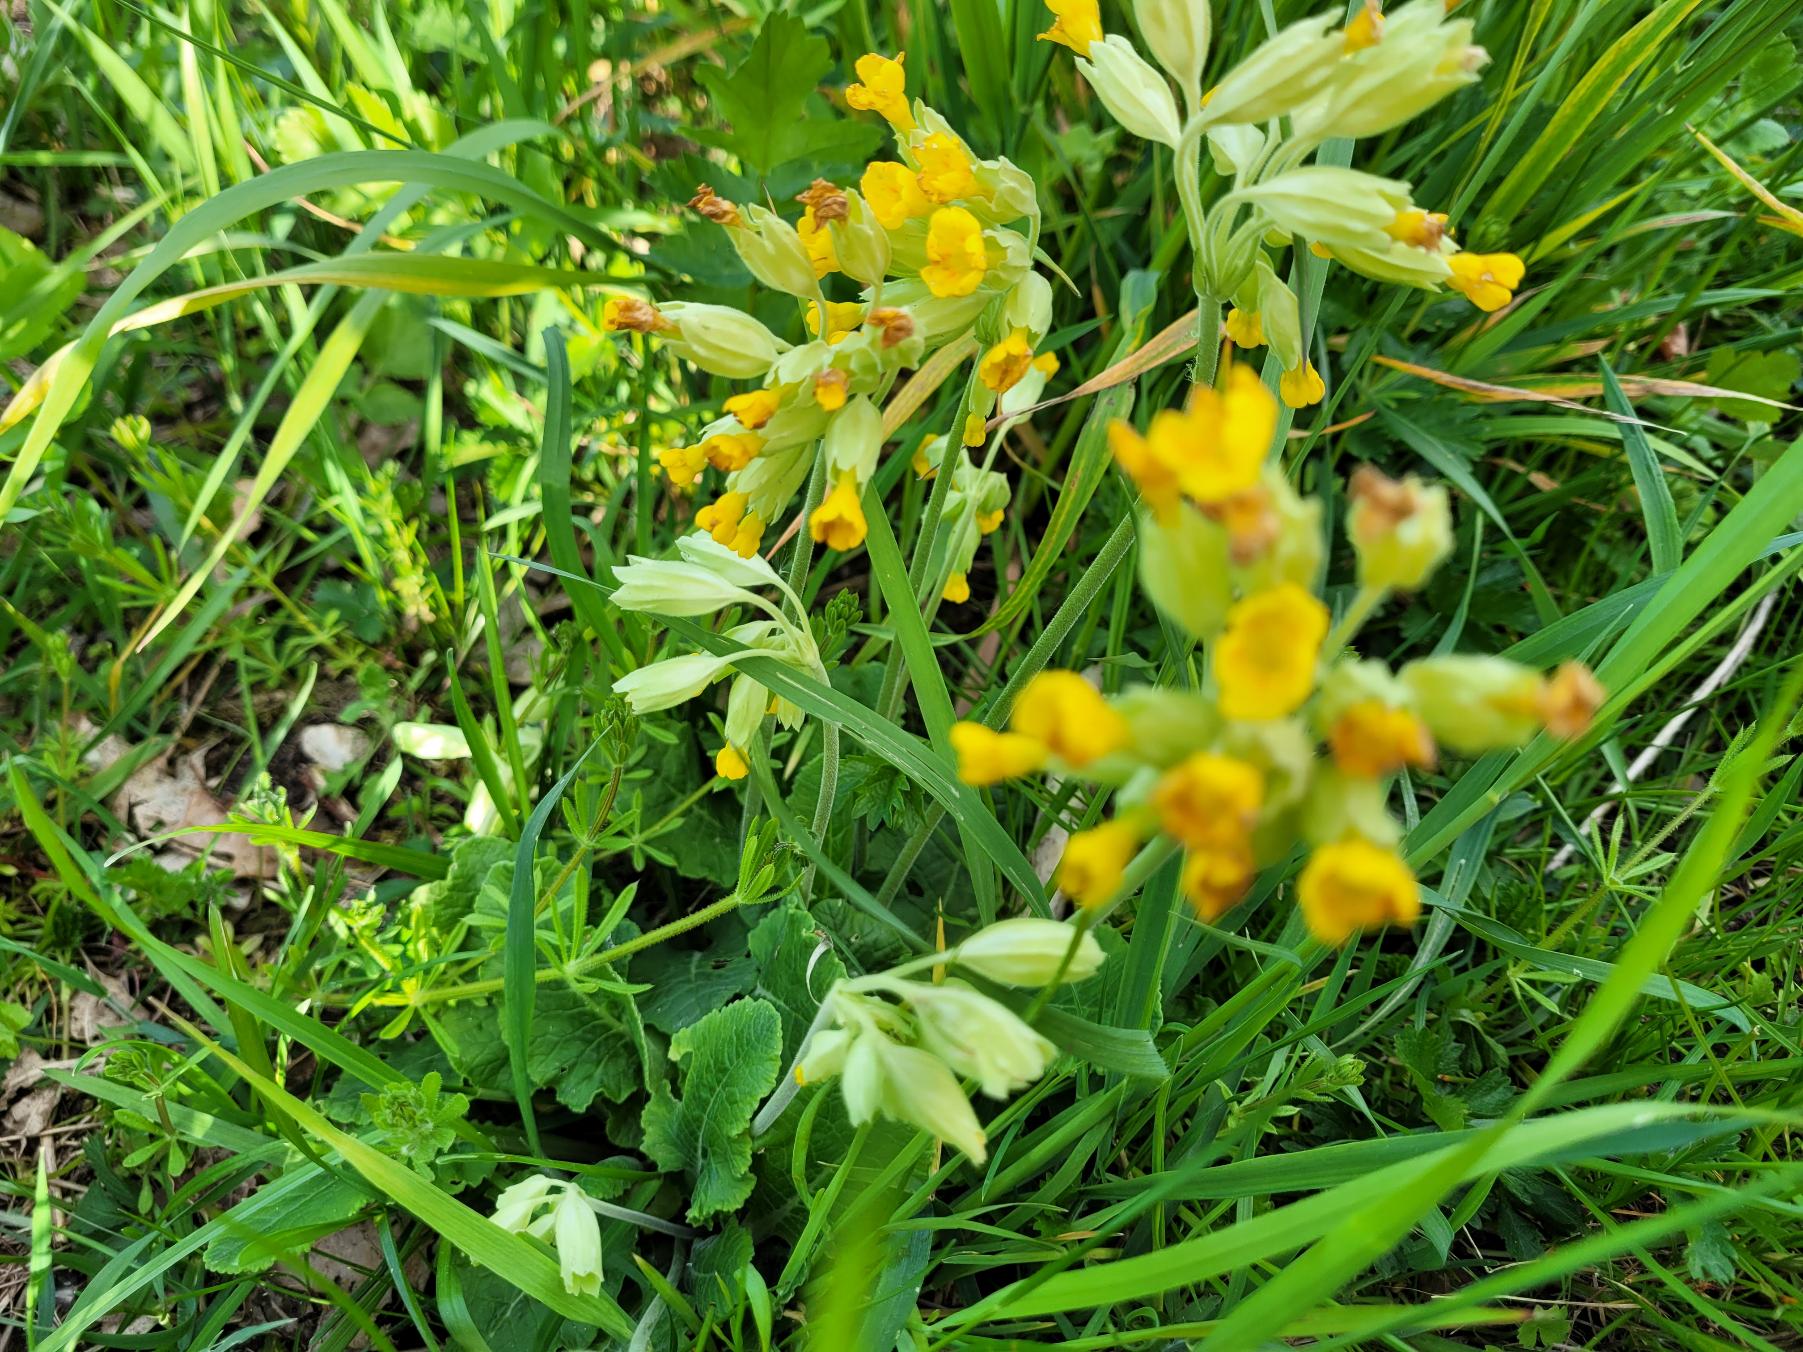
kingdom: Plantae
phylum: Tracheophyta
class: Magnoliopsida
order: Ericales
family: Primulaceae
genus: Primula
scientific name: Primula veris
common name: Hulkravet kodriver
